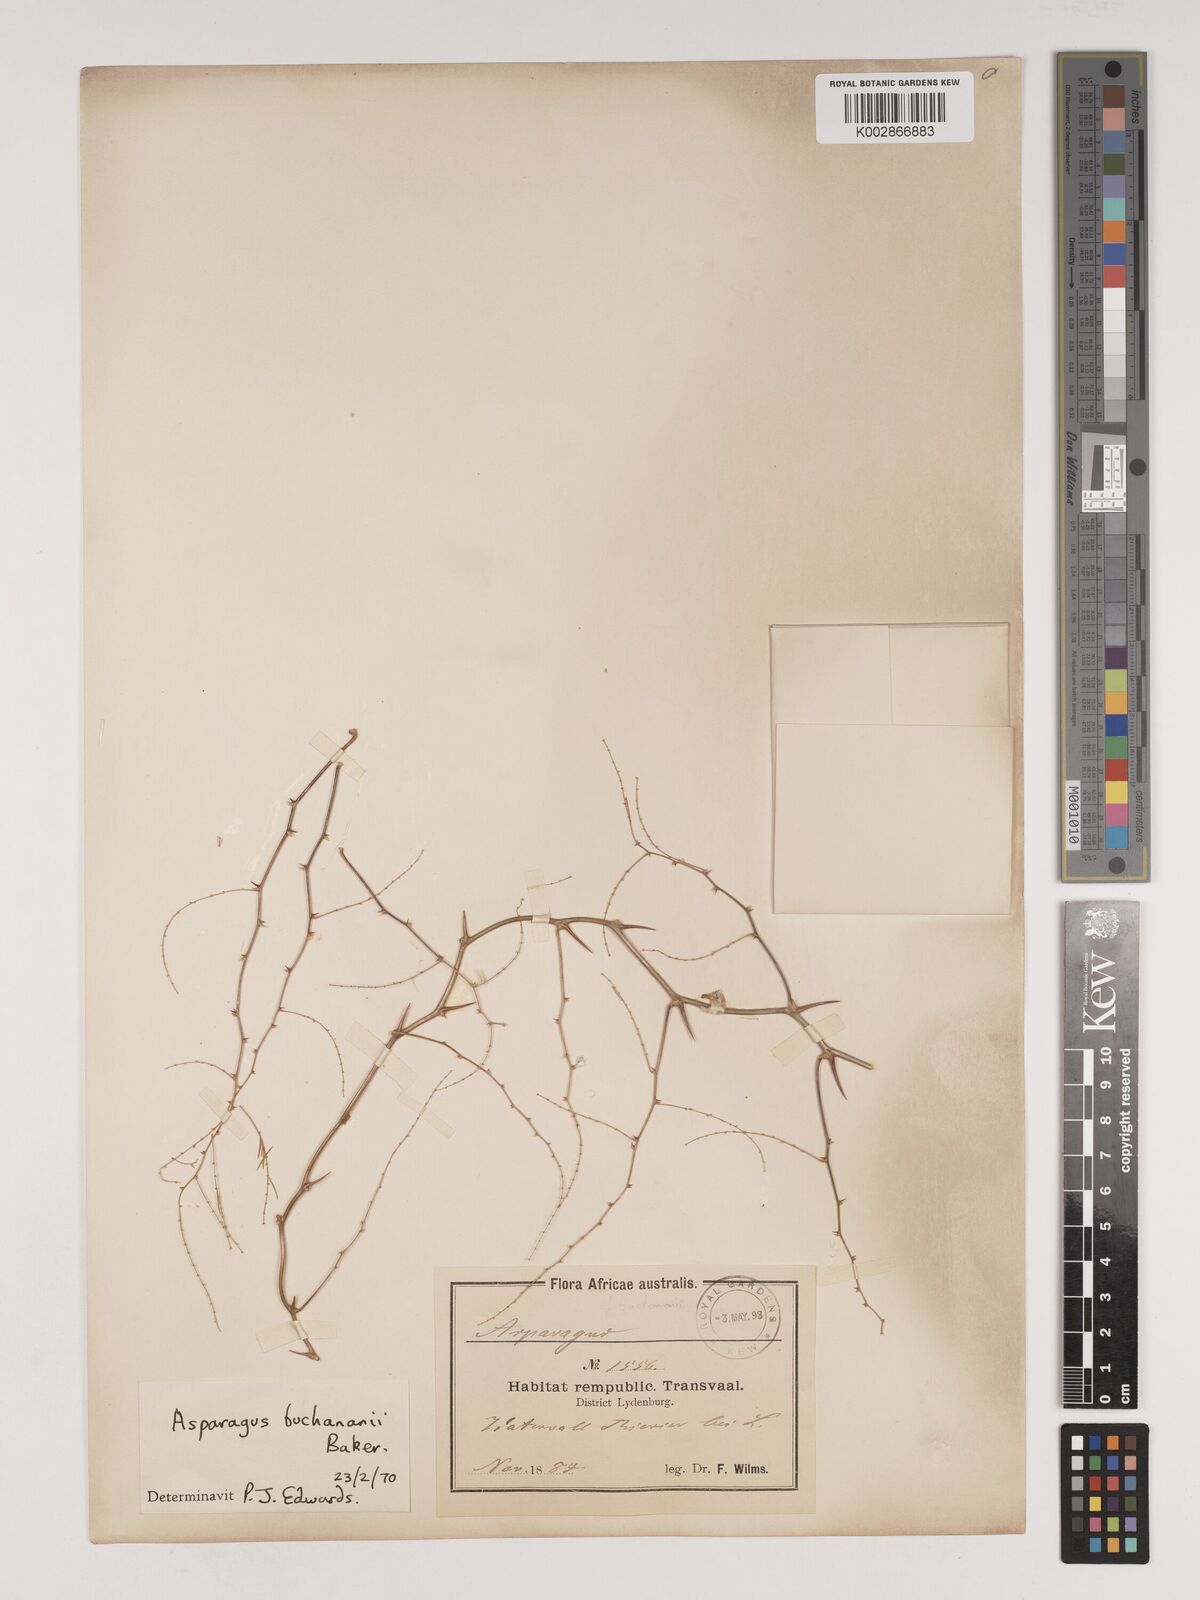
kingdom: Plantae
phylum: Tracheophyta
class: Liliopsida
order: Asparagales
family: Asparagaceae
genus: Asparagus
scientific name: Asparagus buchananii
